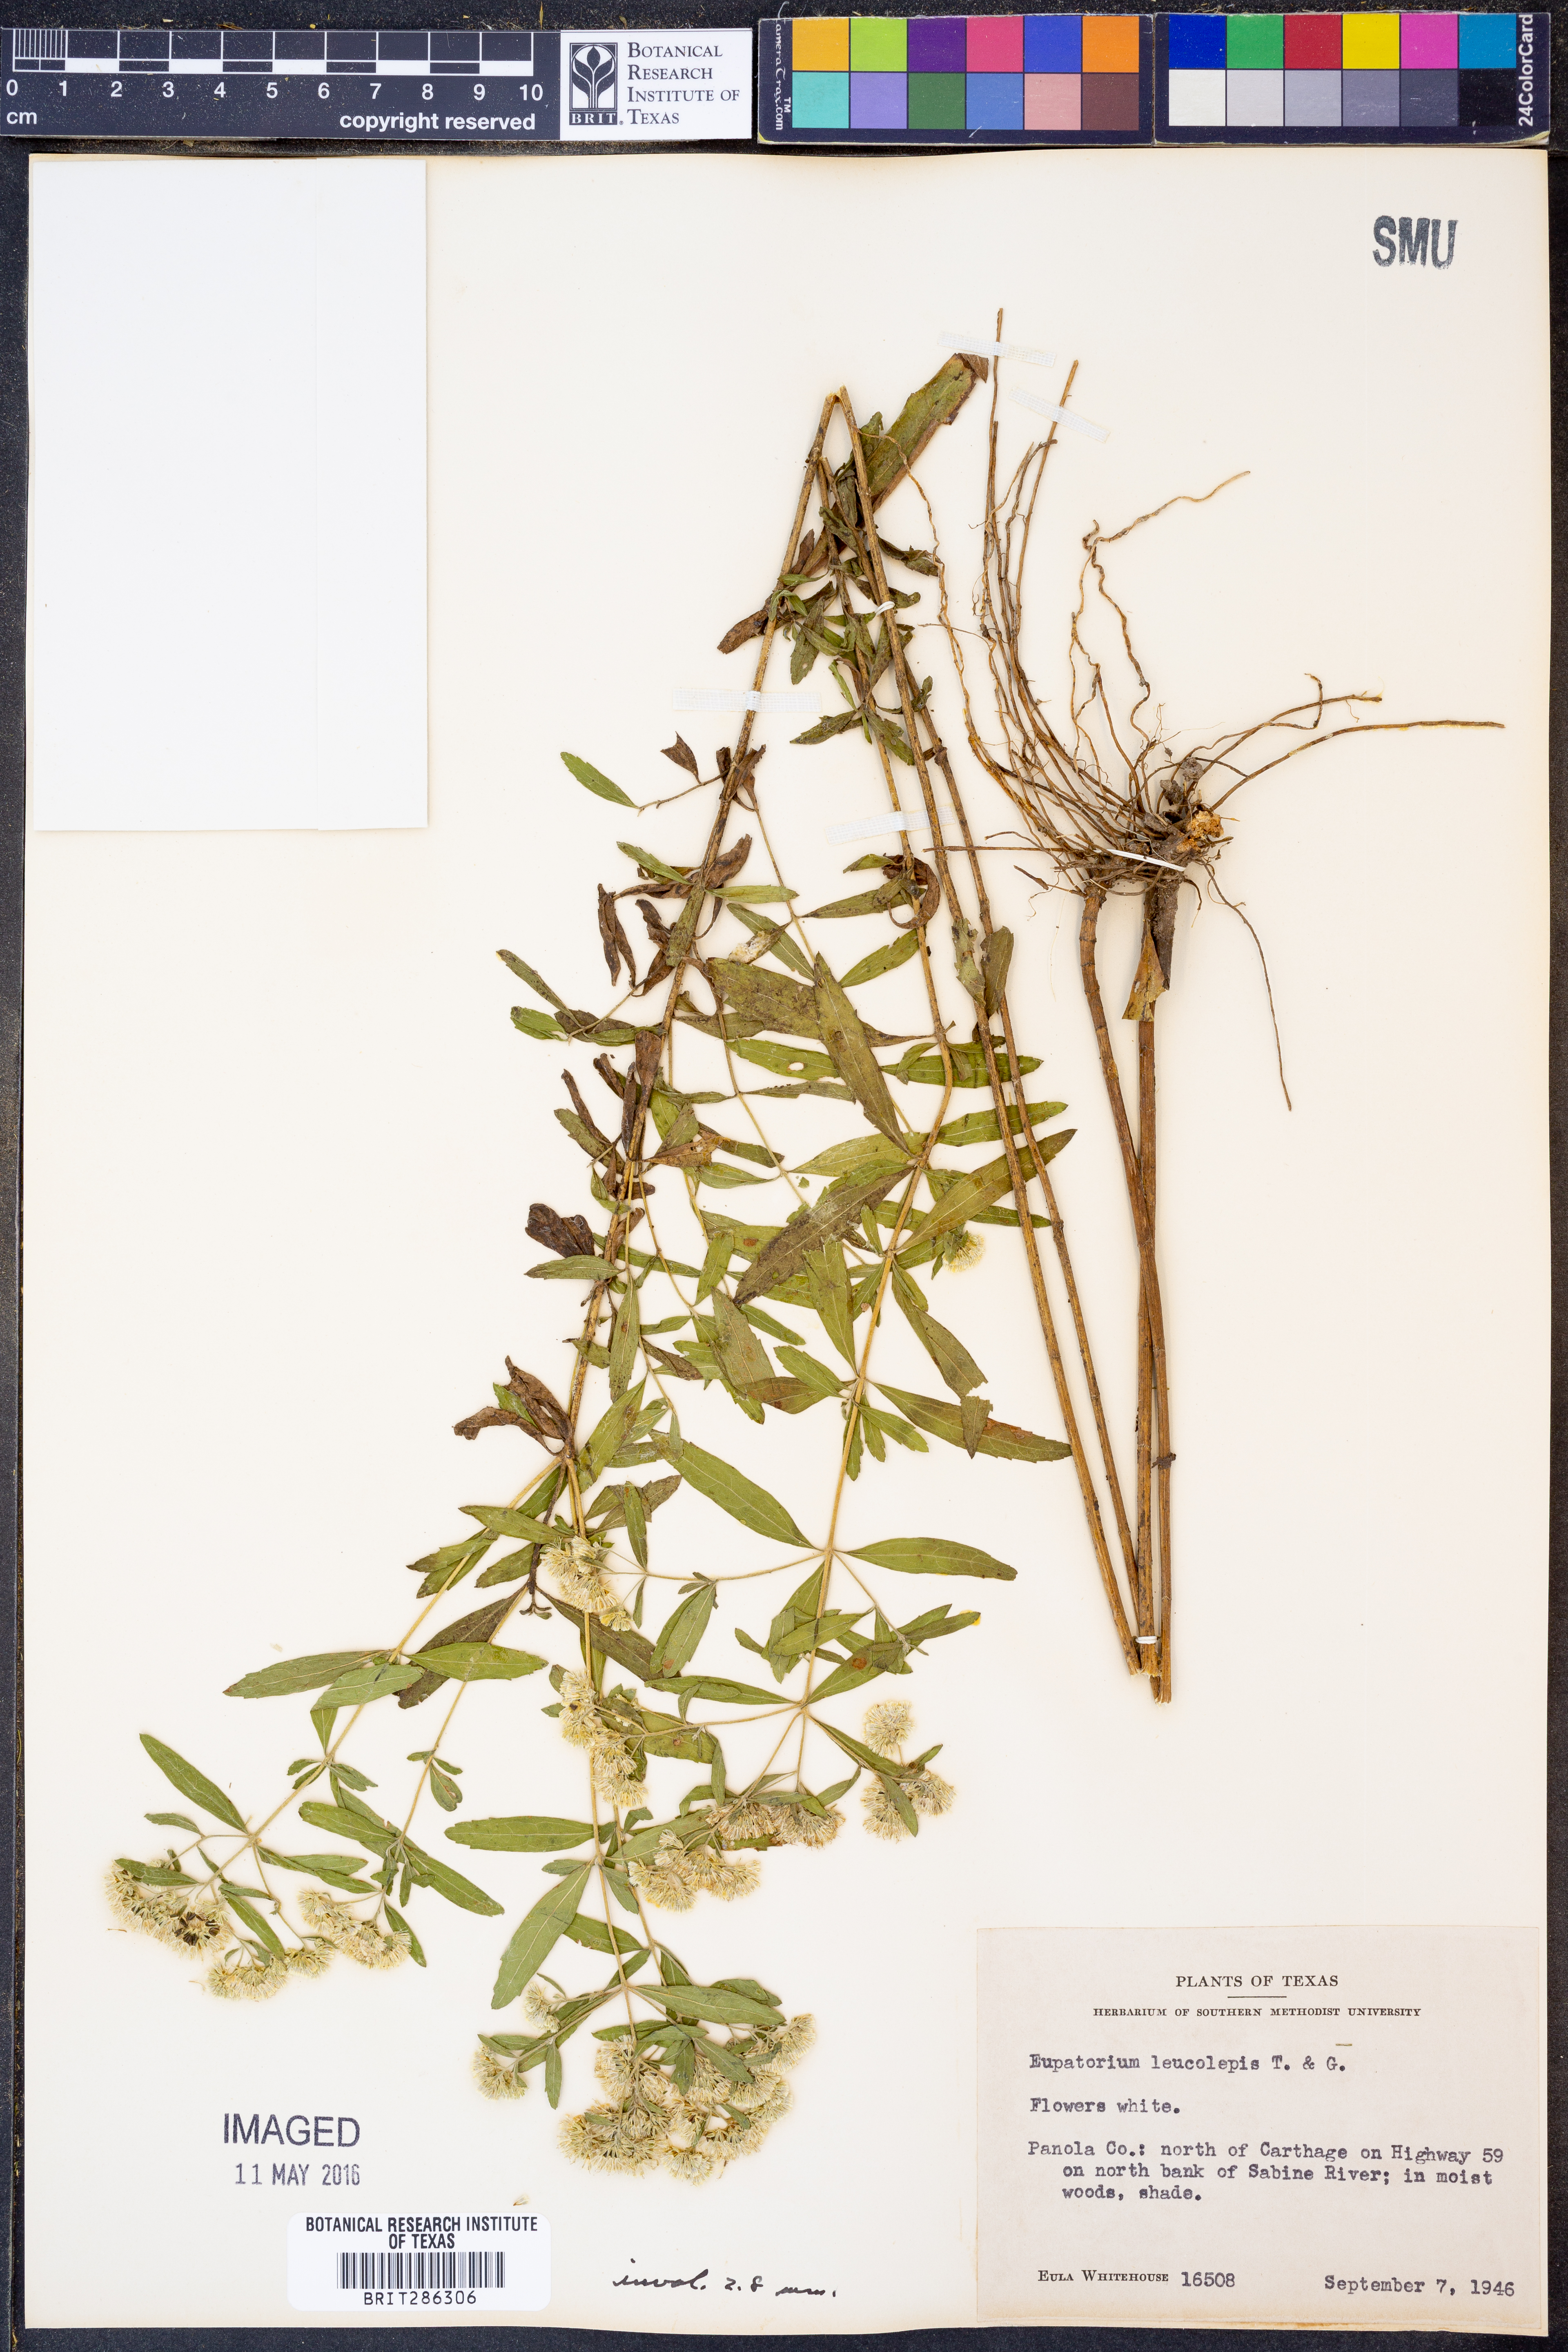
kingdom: Plantae
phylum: Tracheophyta
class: Magnoliopsida
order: Asterales
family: Asteraceae
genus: Eupatorium
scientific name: Eupatorium leucolepis
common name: Justiceweed
